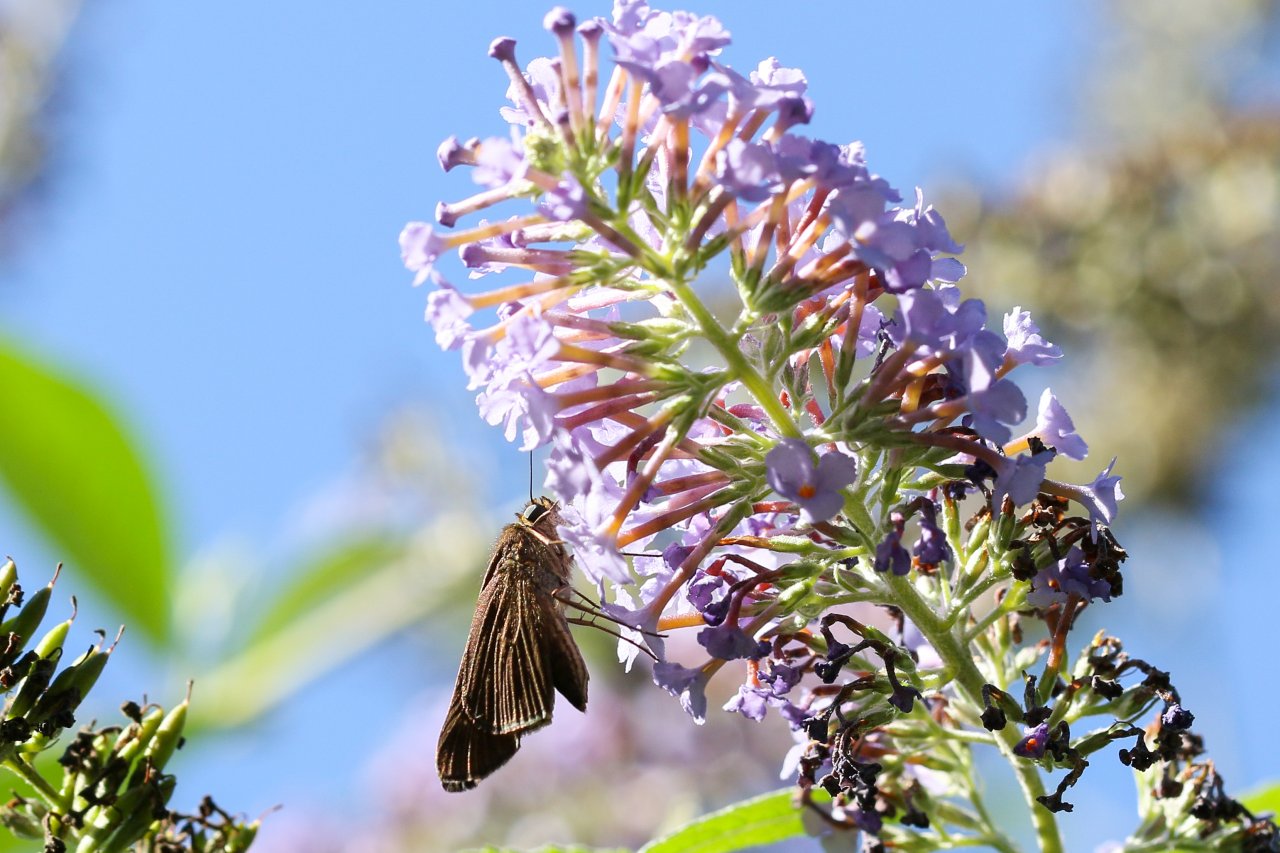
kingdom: Animalia
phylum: Arthropoda
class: Insecta
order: Lepidoptera
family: Hesperiidae
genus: Panoquina
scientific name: Panoquina ocola
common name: Ocola Skipper
